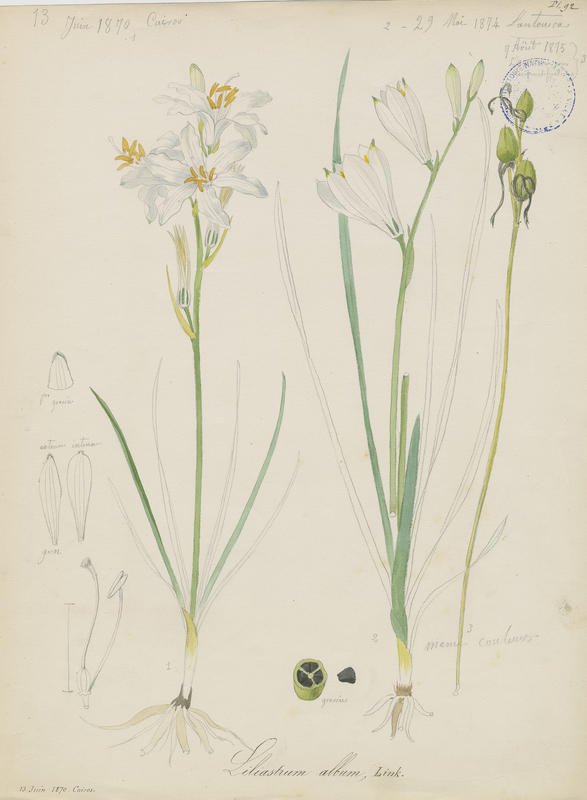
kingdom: Plantae
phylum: Tracheophyta
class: Liliopsida
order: Asparagales
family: Asparagaceae
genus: Paradisea
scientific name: Paradisea liliastrum
